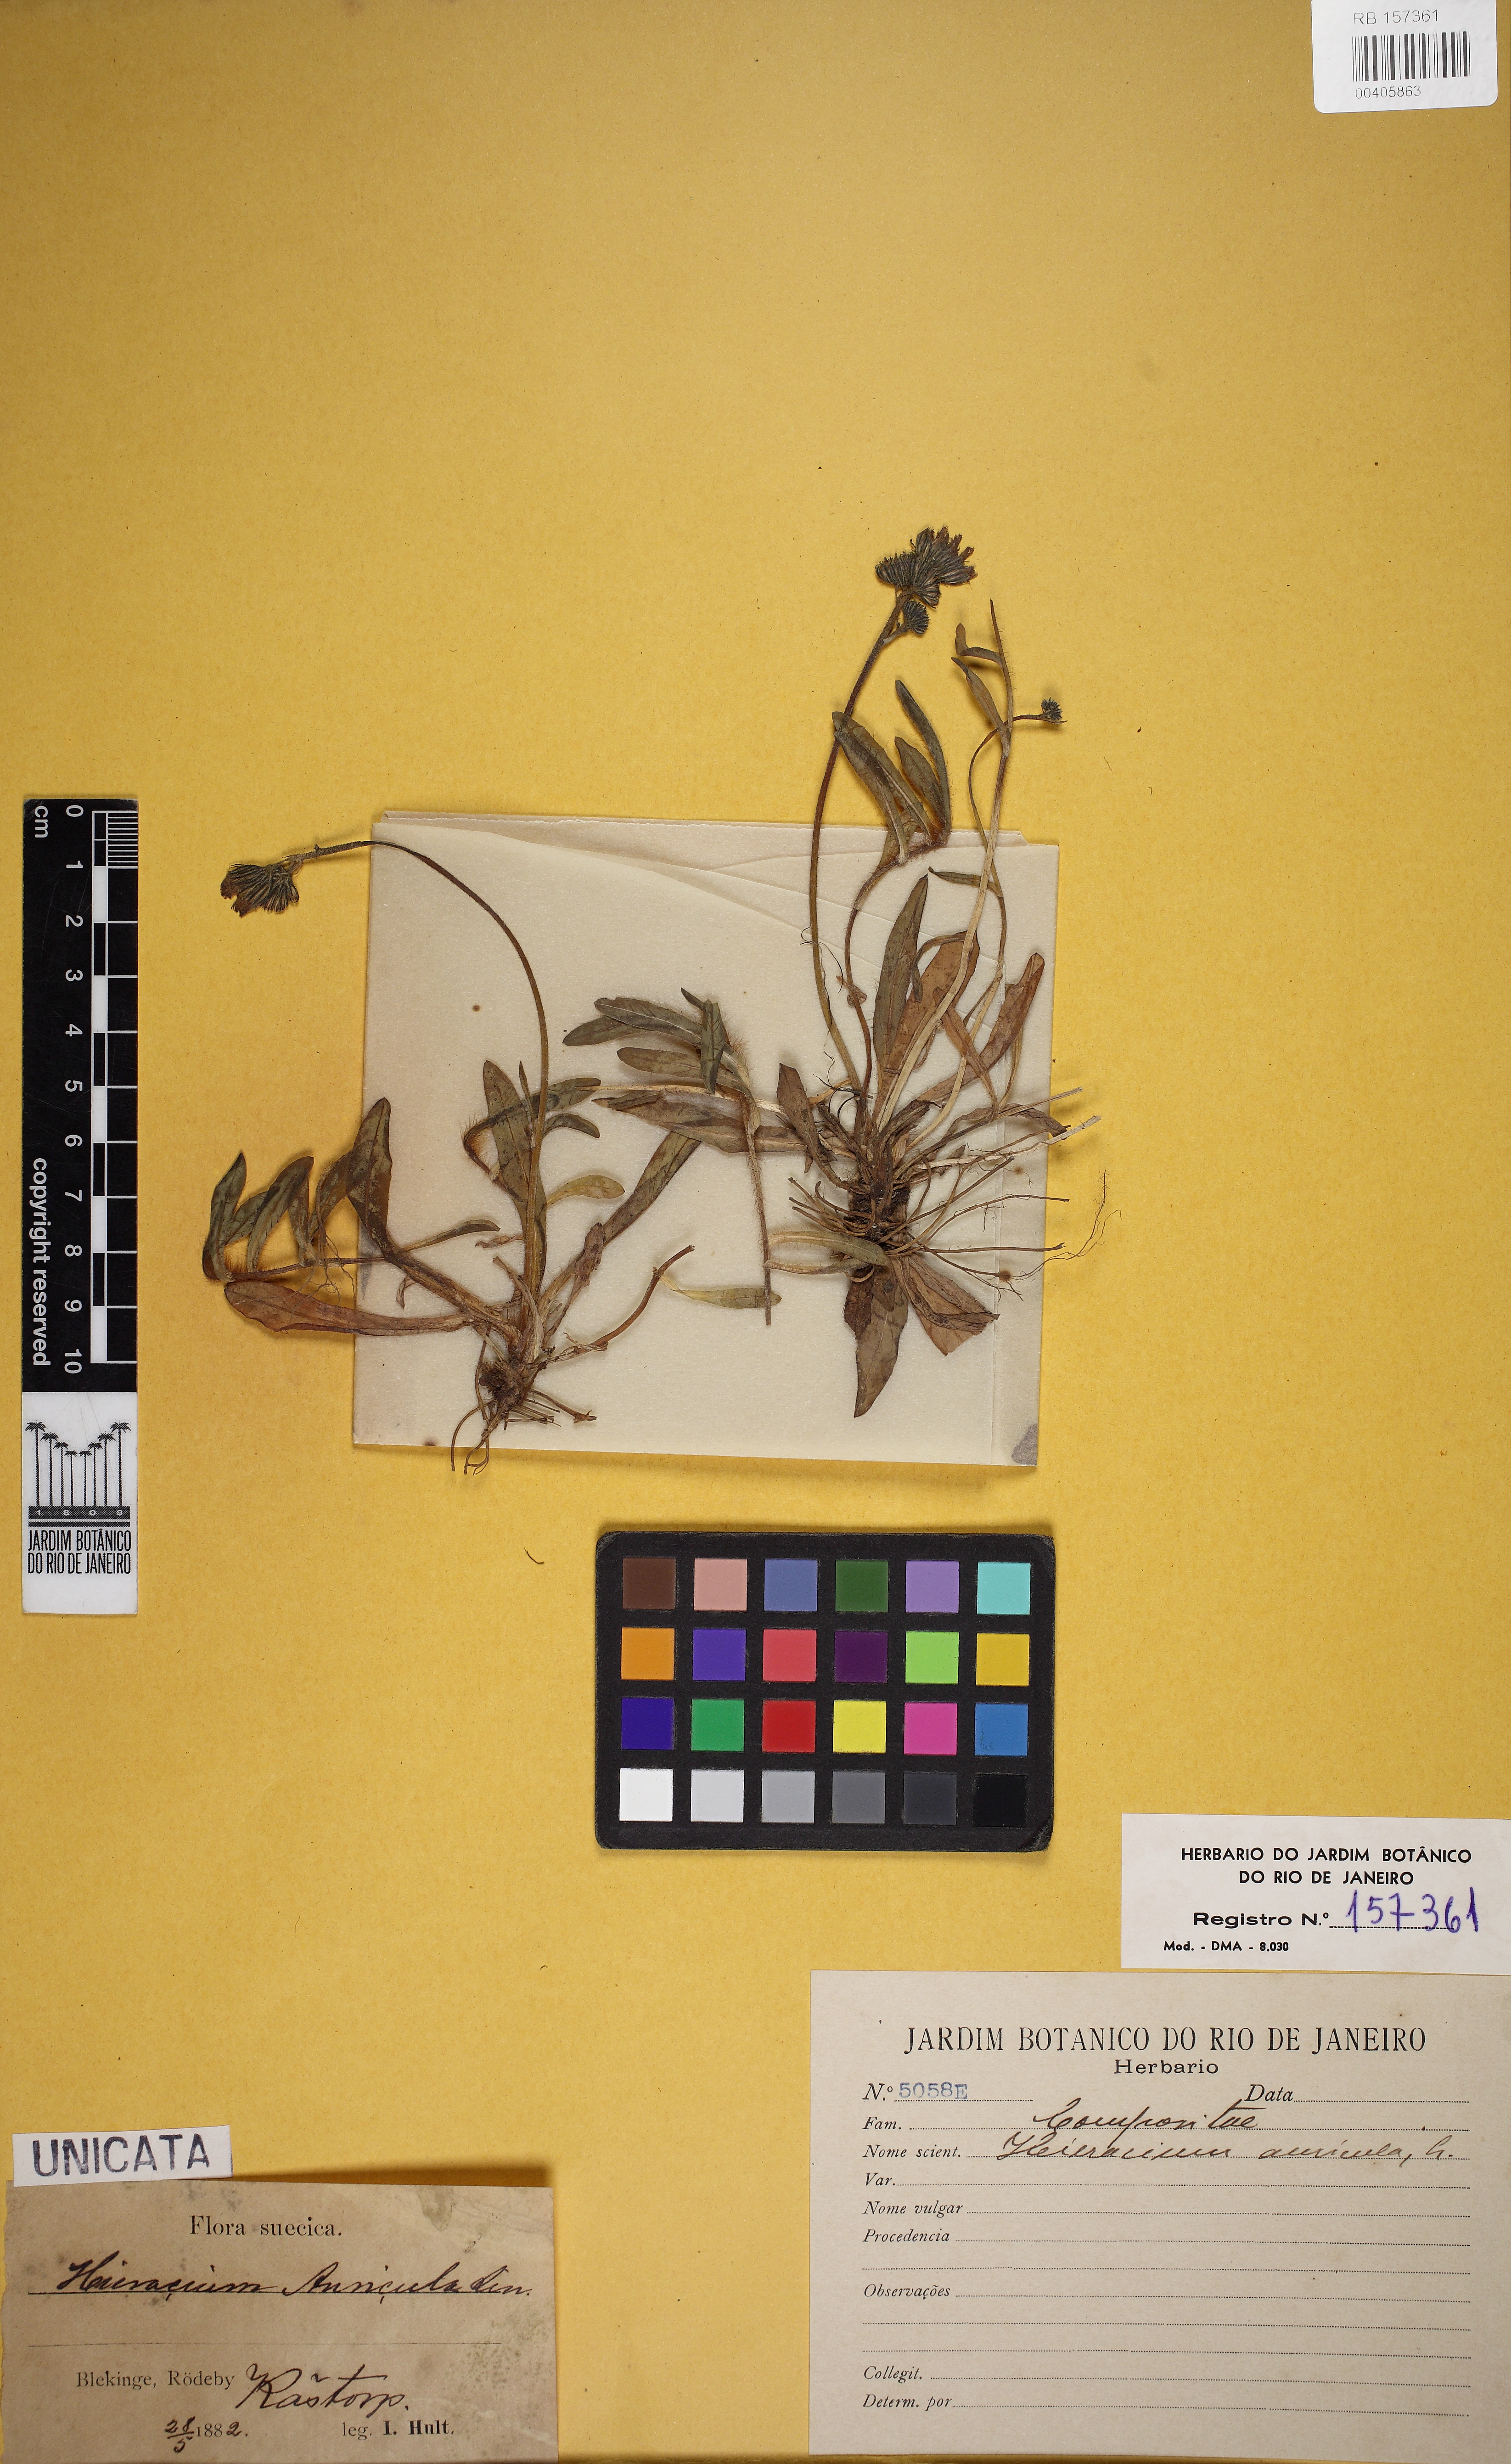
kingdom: Plantae
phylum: Tracheophyta
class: Magnoliopsida
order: Asterales
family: Asteraceae
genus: Pilosella
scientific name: Pilosella floribunda
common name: Glaucous hawkweed
